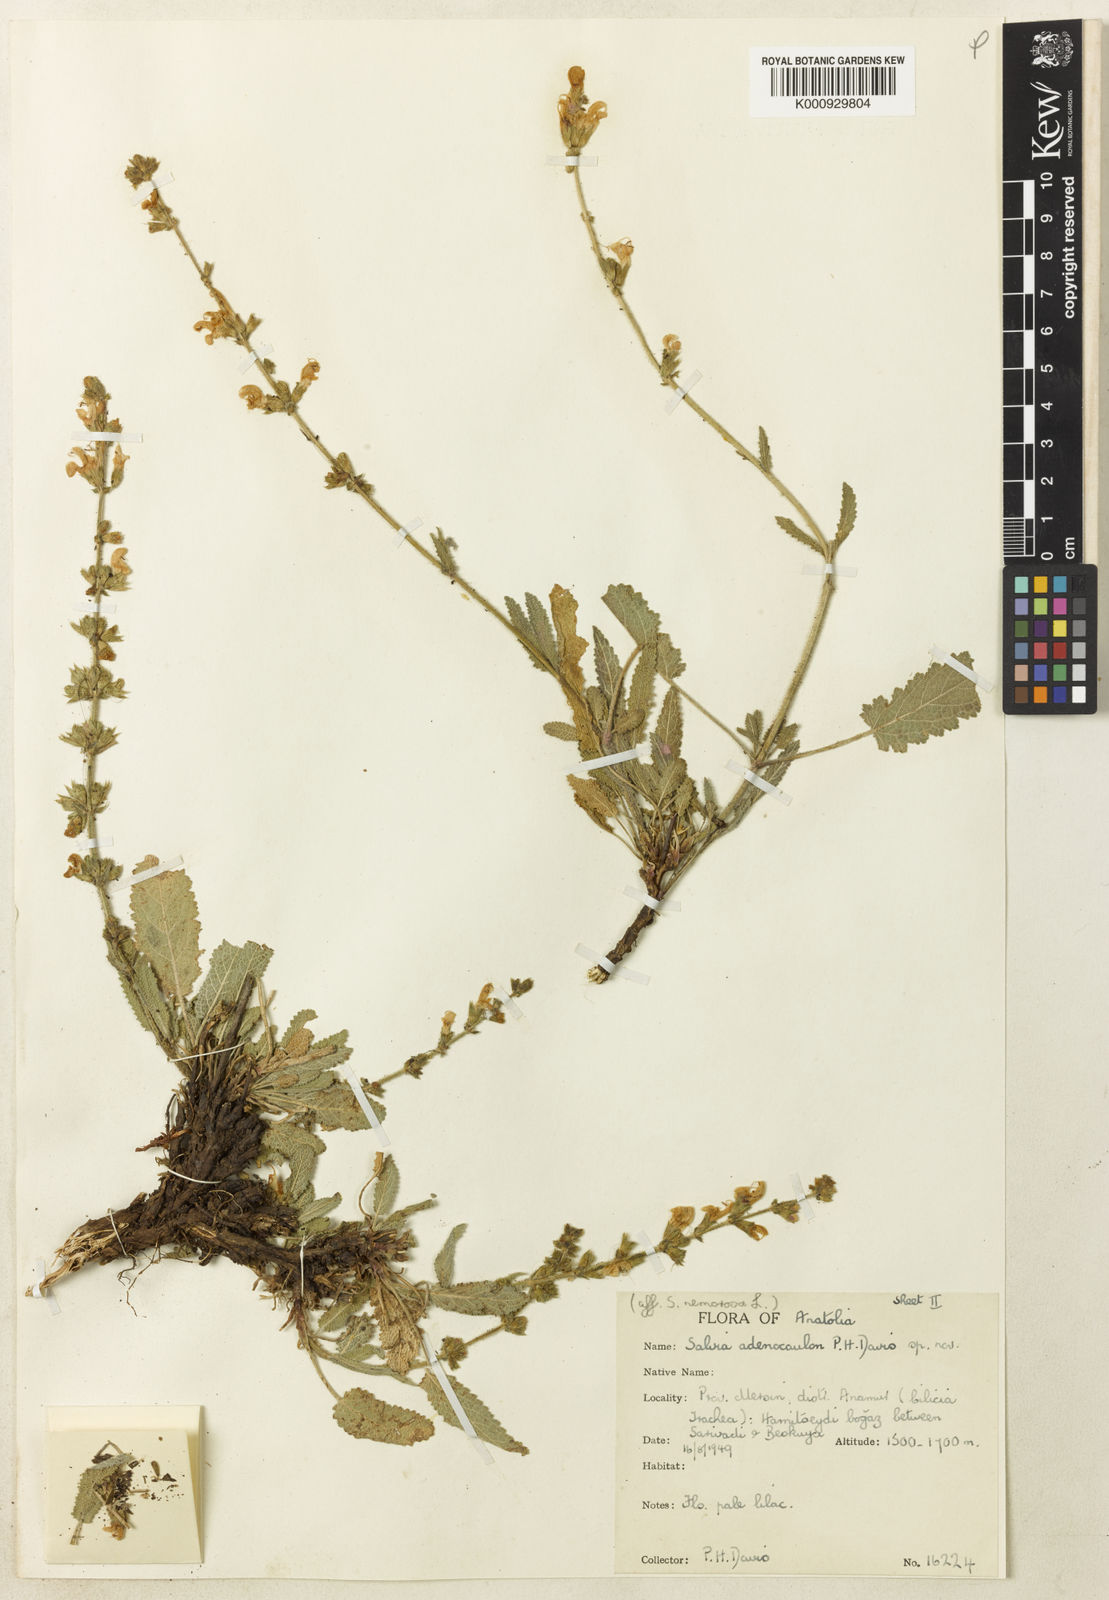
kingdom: Plantae
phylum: Tracheophyta
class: Magnoliopsida
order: Lamiales
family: Lamiaceae
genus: Salvia
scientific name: Salvia adenocaulon
